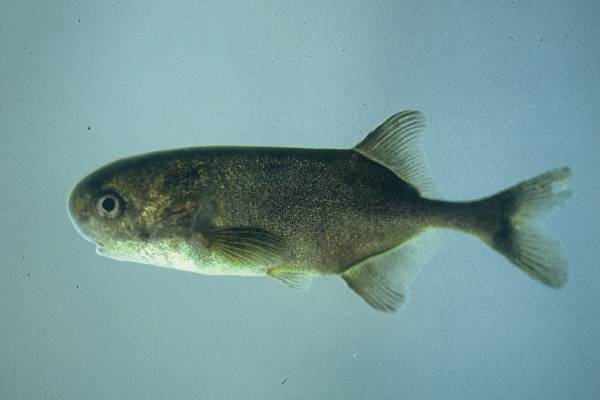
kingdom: Animalia
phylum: Chordata
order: Osteoglossiformes
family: Mormyridae
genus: Petrocephalus
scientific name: Petrocephalus catostoma
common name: Churchill
